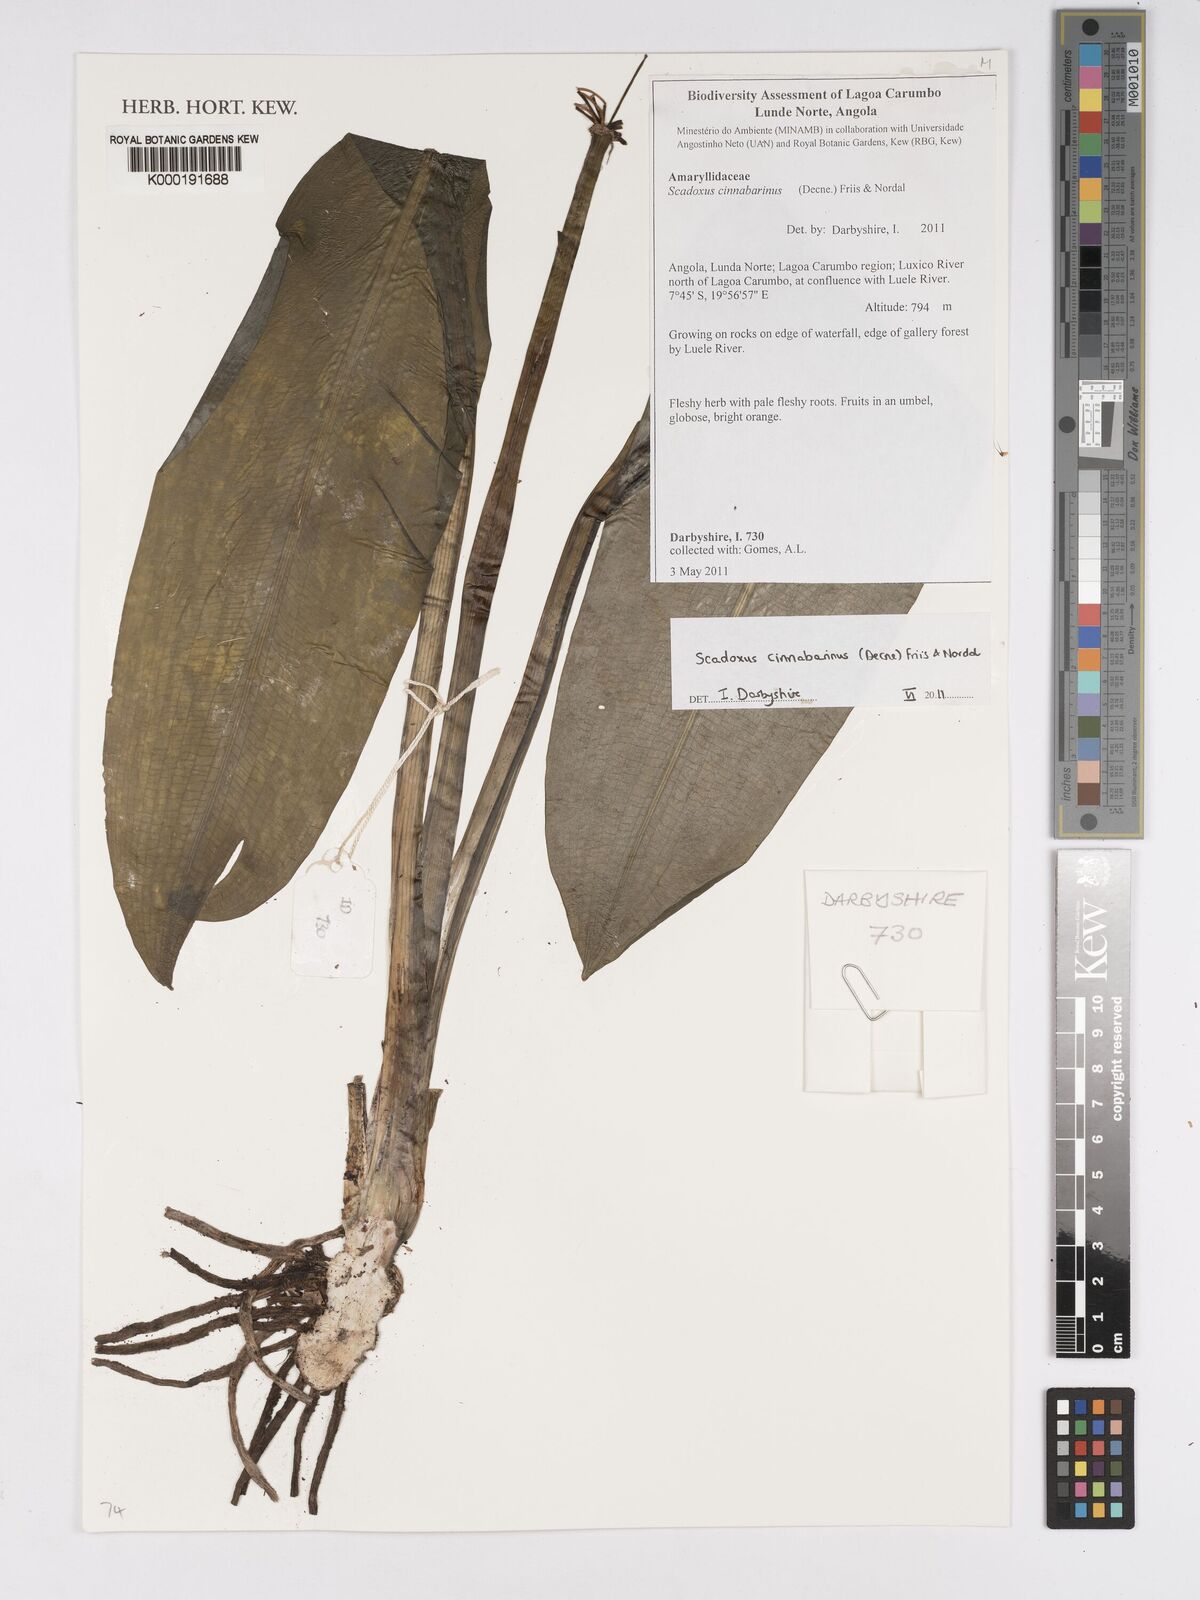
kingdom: Plantae
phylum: Tracheophyta
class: Liliopsida
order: Asparagales
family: Amaryllidaceae
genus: Scadoxus
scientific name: Scadoxus cinnabarinus
